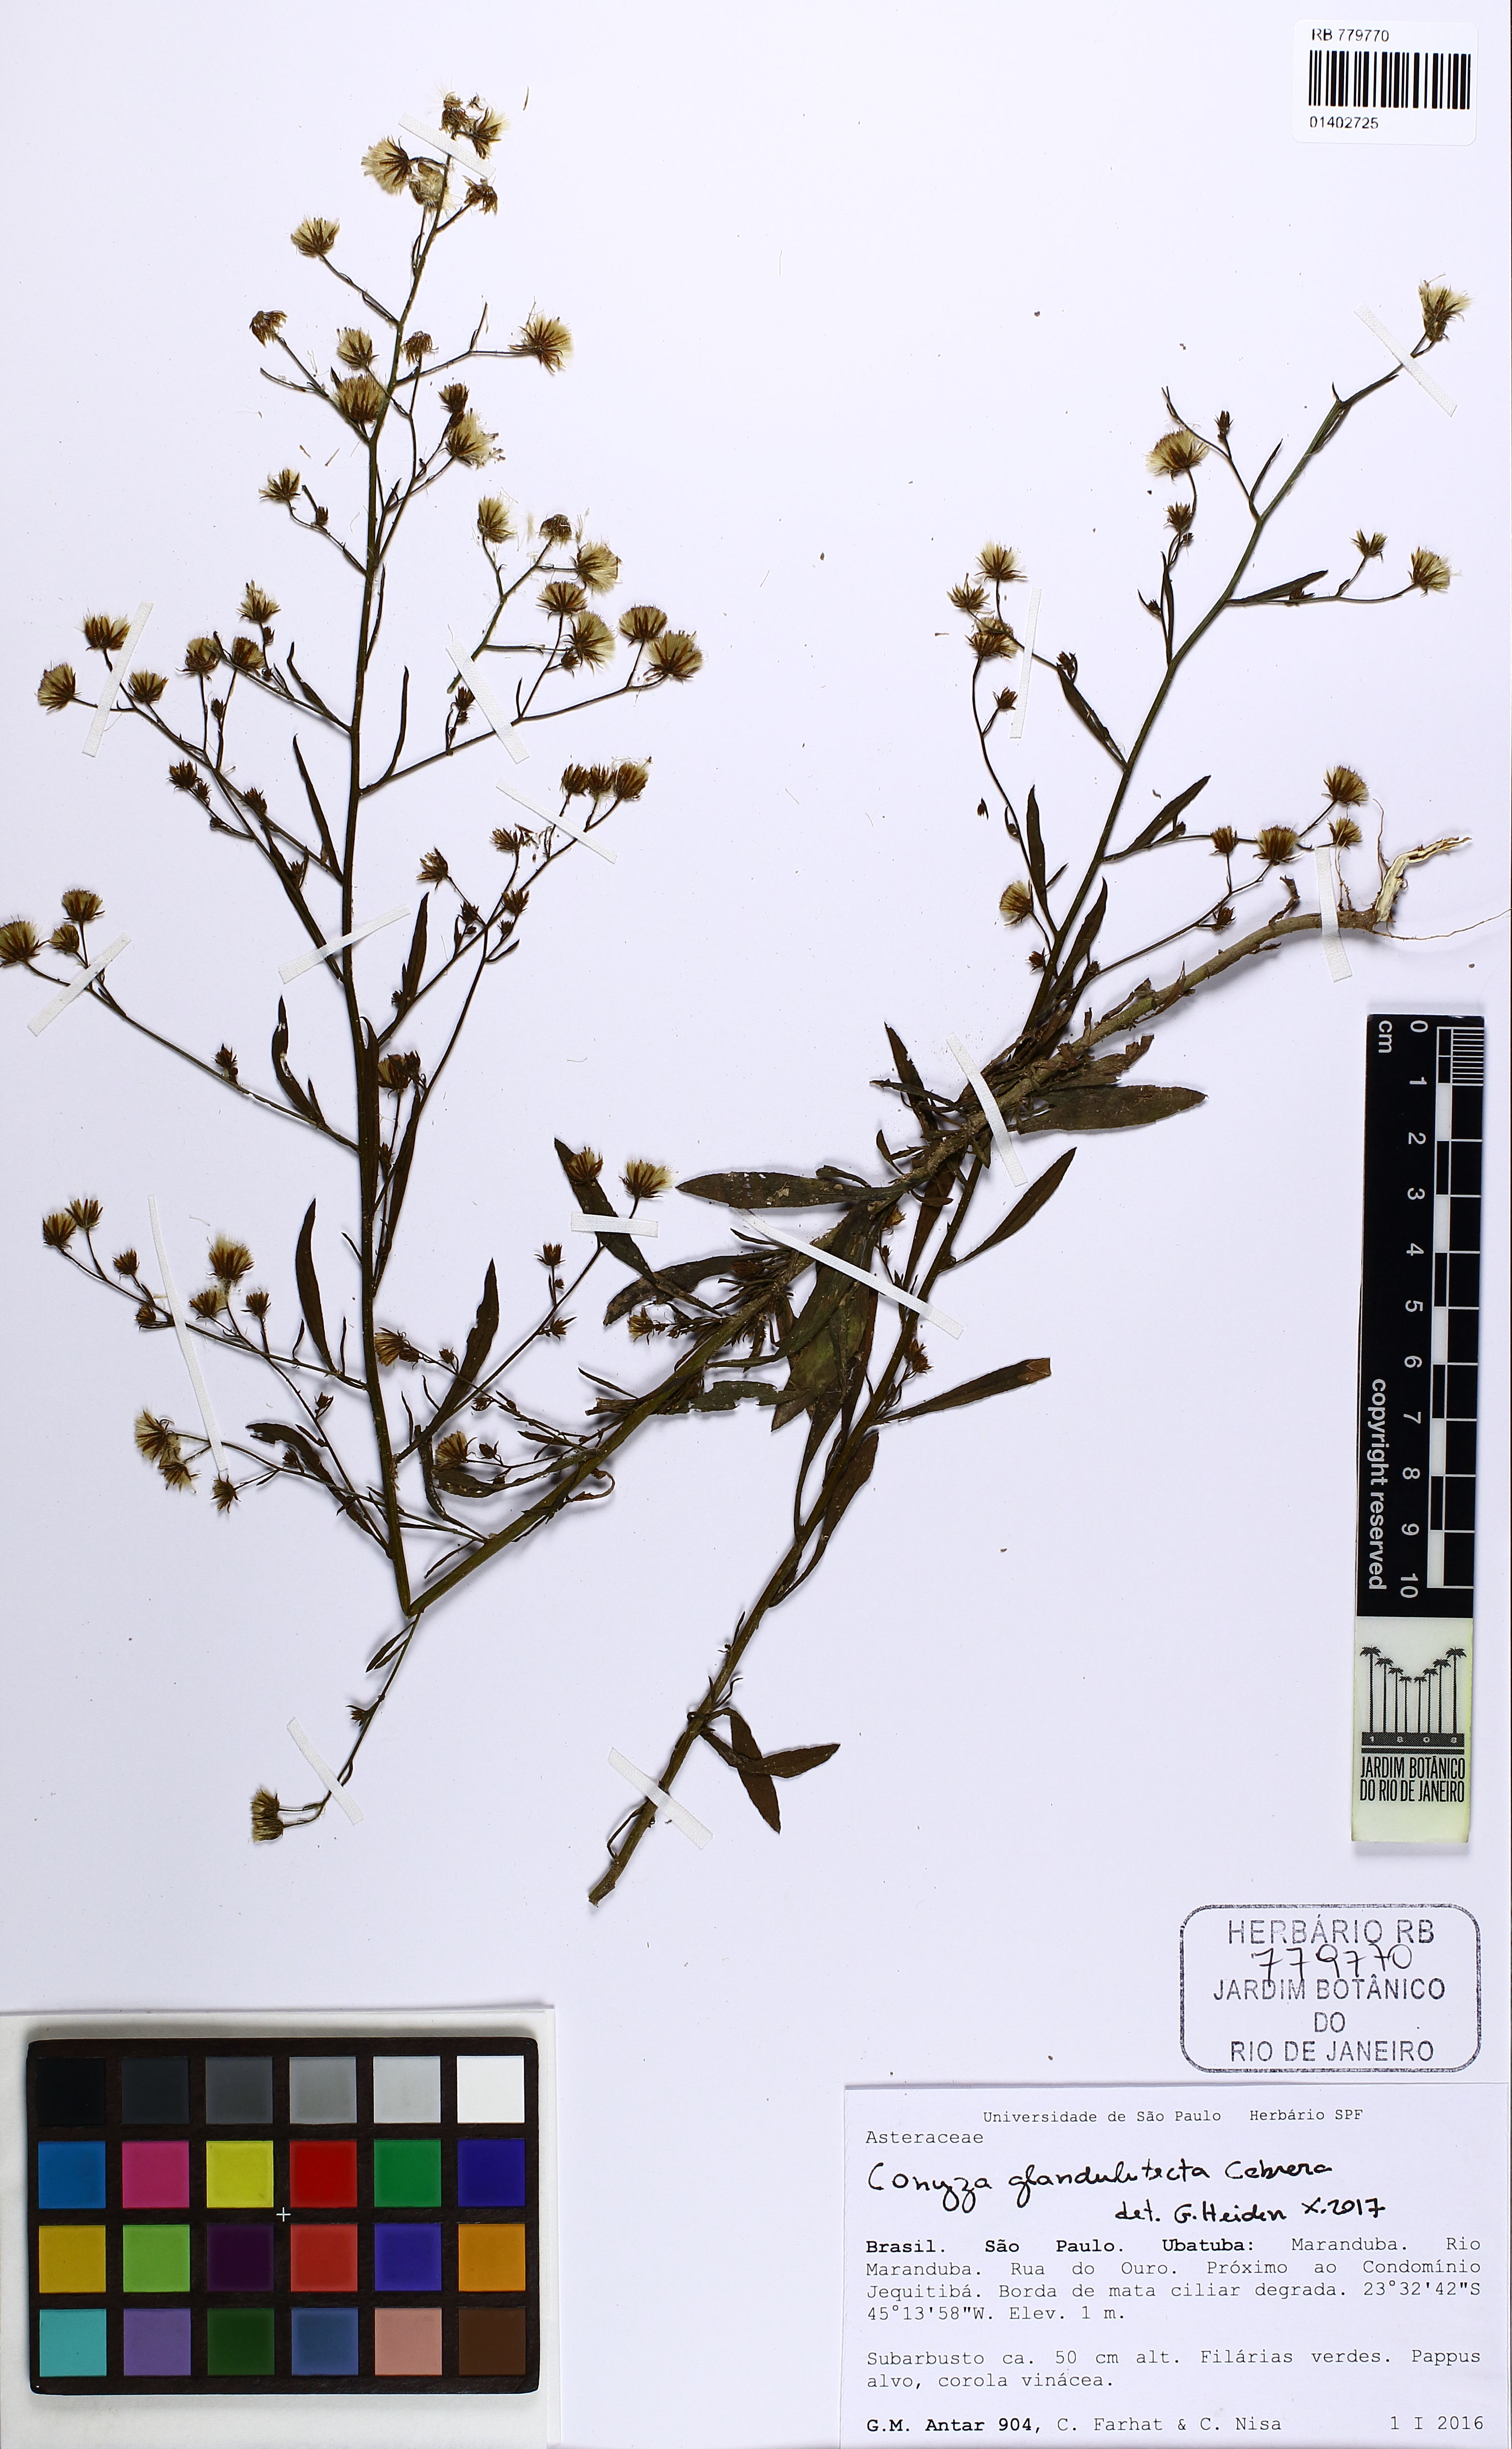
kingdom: Plantae
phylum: Tracheophyta
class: Magnoliopsida
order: Asterales
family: Asteraceae
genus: Erigeron
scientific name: Erigeron glandulitectus
